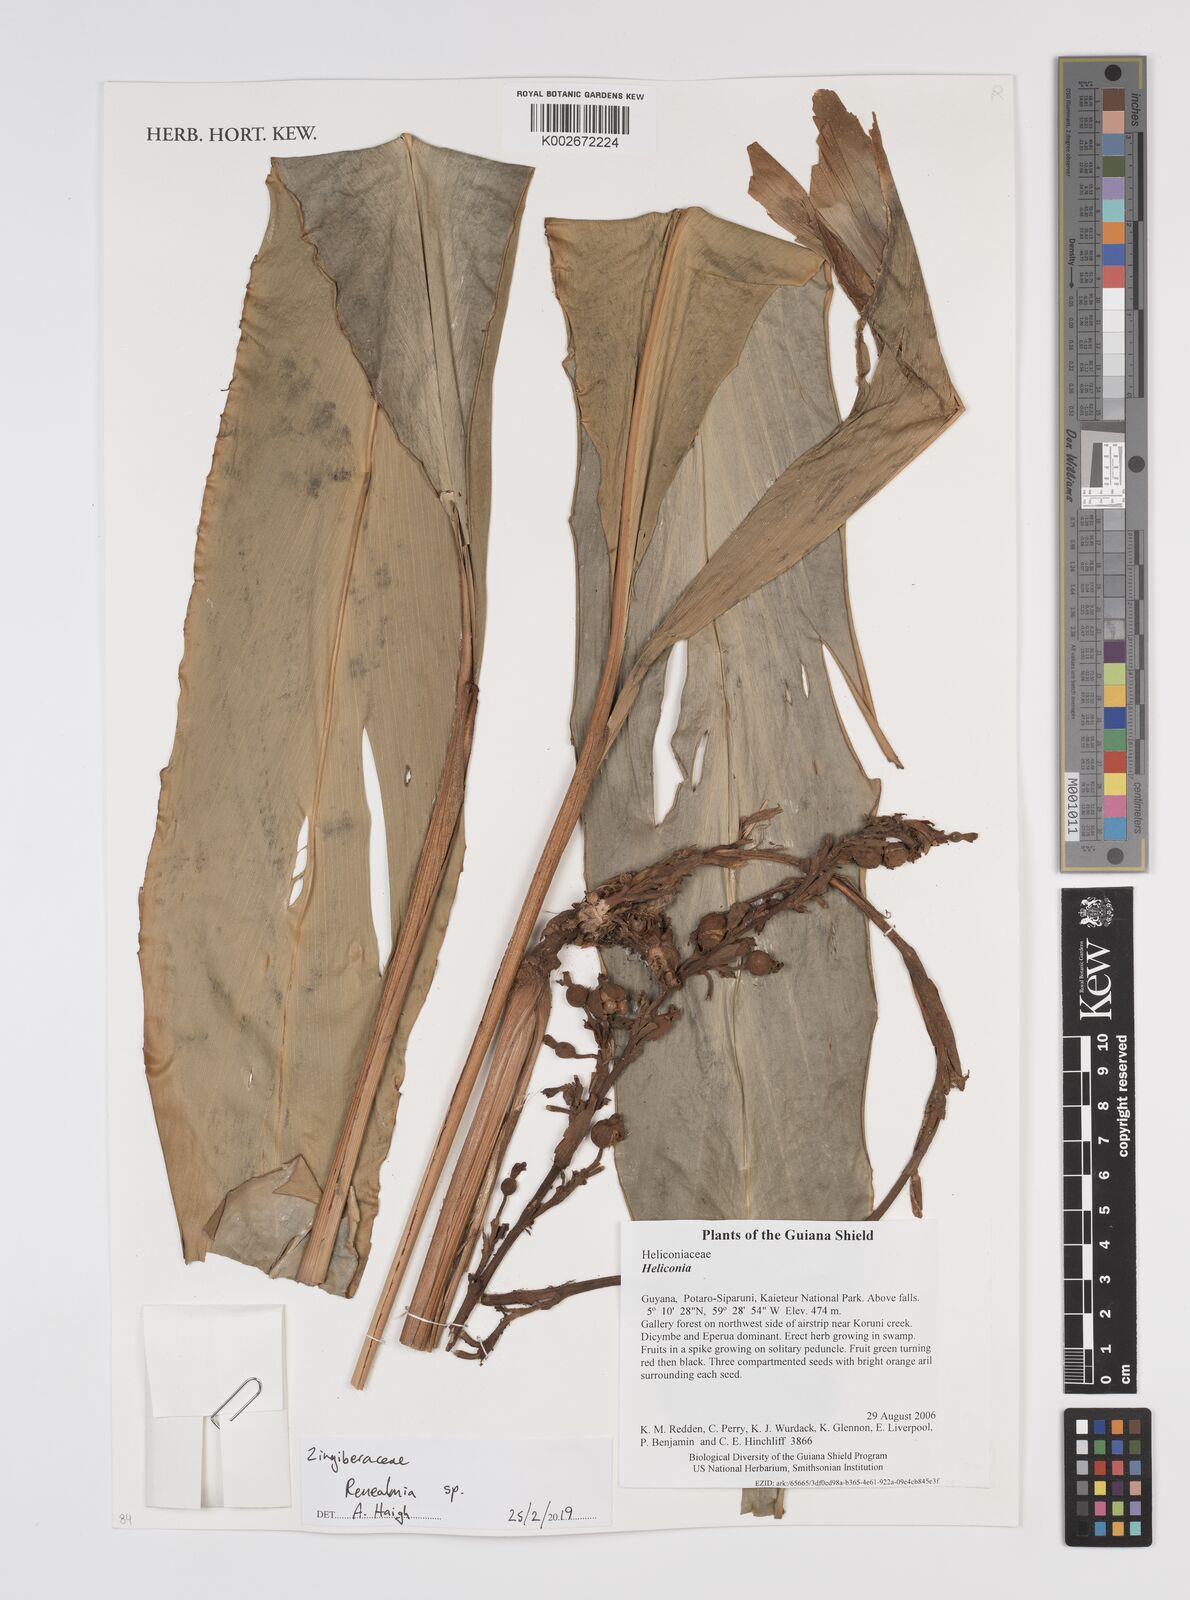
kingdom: Plantae
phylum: Tracheophyta
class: Liliopsida
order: Zingiberales
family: Zingiberaceae
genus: Renealmia
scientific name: Renealmia
